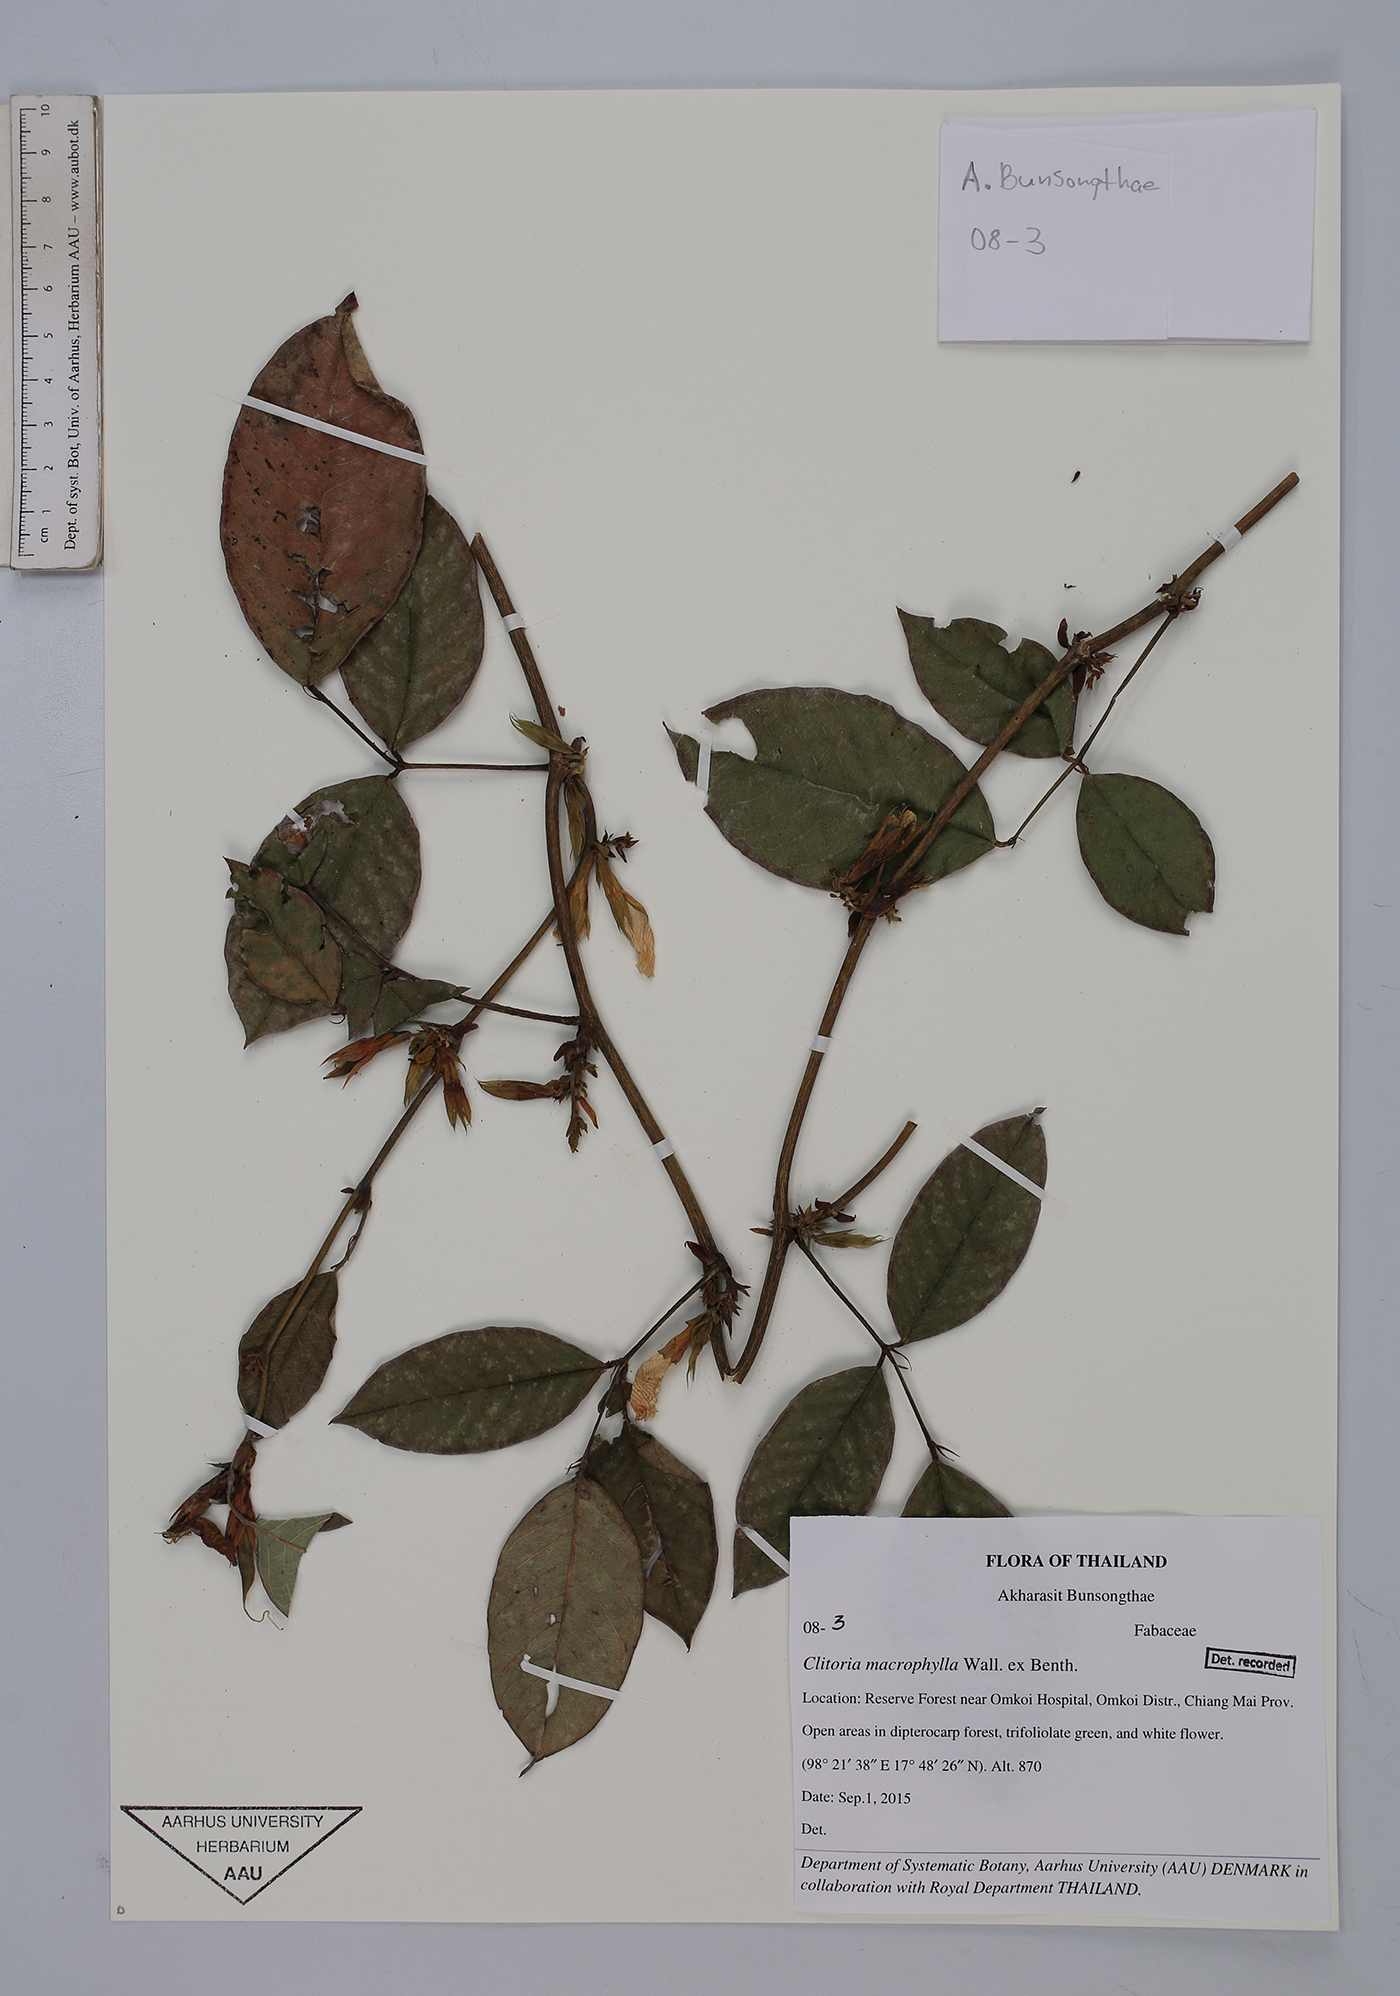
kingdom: Plantae
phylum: Tracheophyta
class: Magnoliopsida
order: Fabales
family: Fabaceae
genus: Clitoria
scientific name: Clitoria macrophylla
